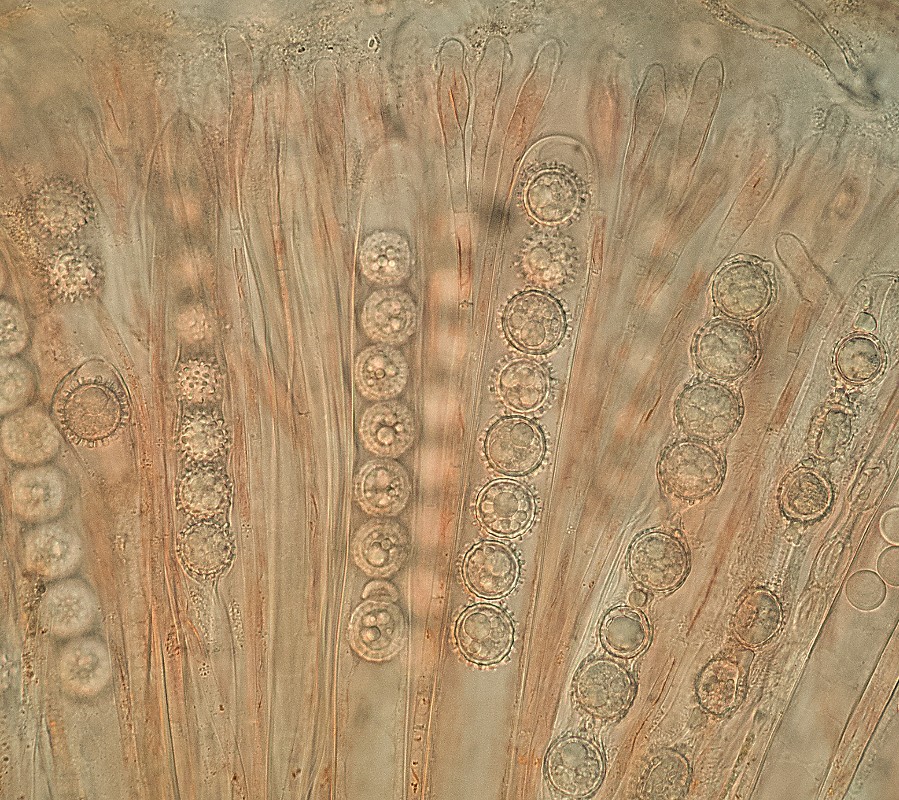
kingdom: Fungi
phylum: Ascomycota
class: Pezizomycetes
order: Pezizales
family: Pyronemataceae
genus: Scutellinia
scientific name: Scutellinia trechispora
